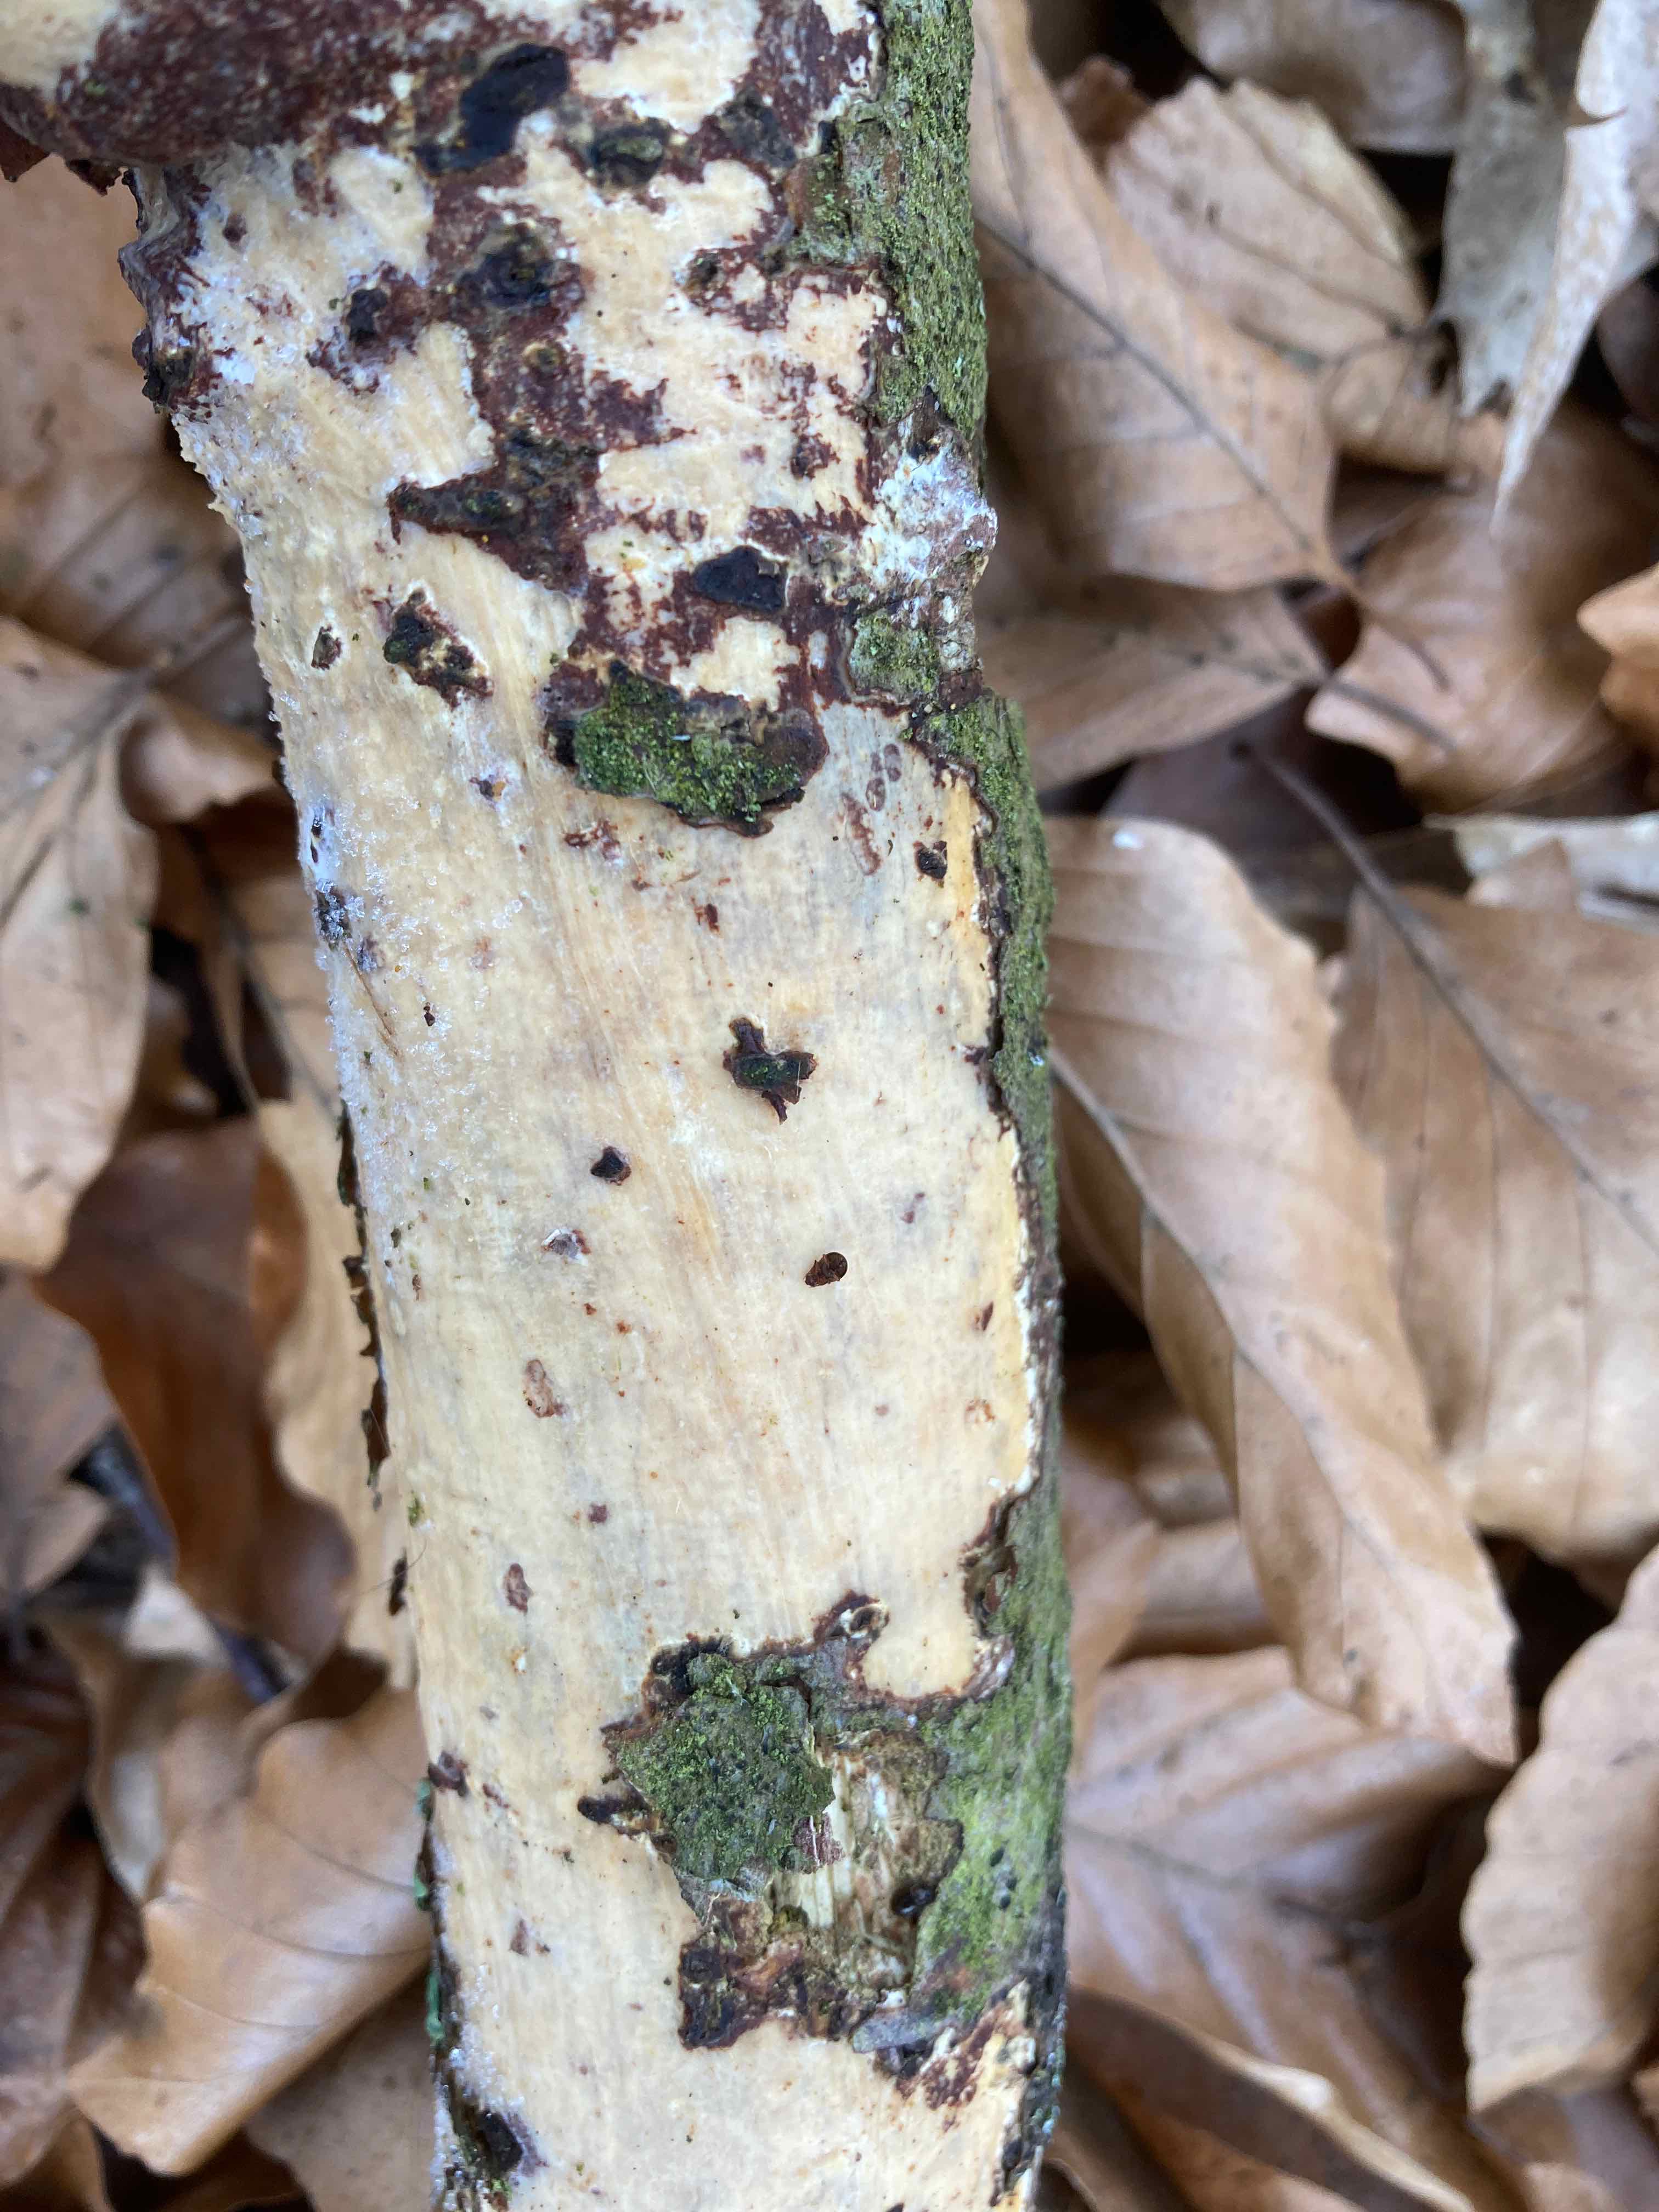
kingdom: Fungi
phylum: Basidiomycota
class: Agaricomycetes
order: Corticiales
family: Vuilleminiaceae
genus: Vuilleminia
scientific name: Vuilleminia comedens
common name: almindelig barksprænger
